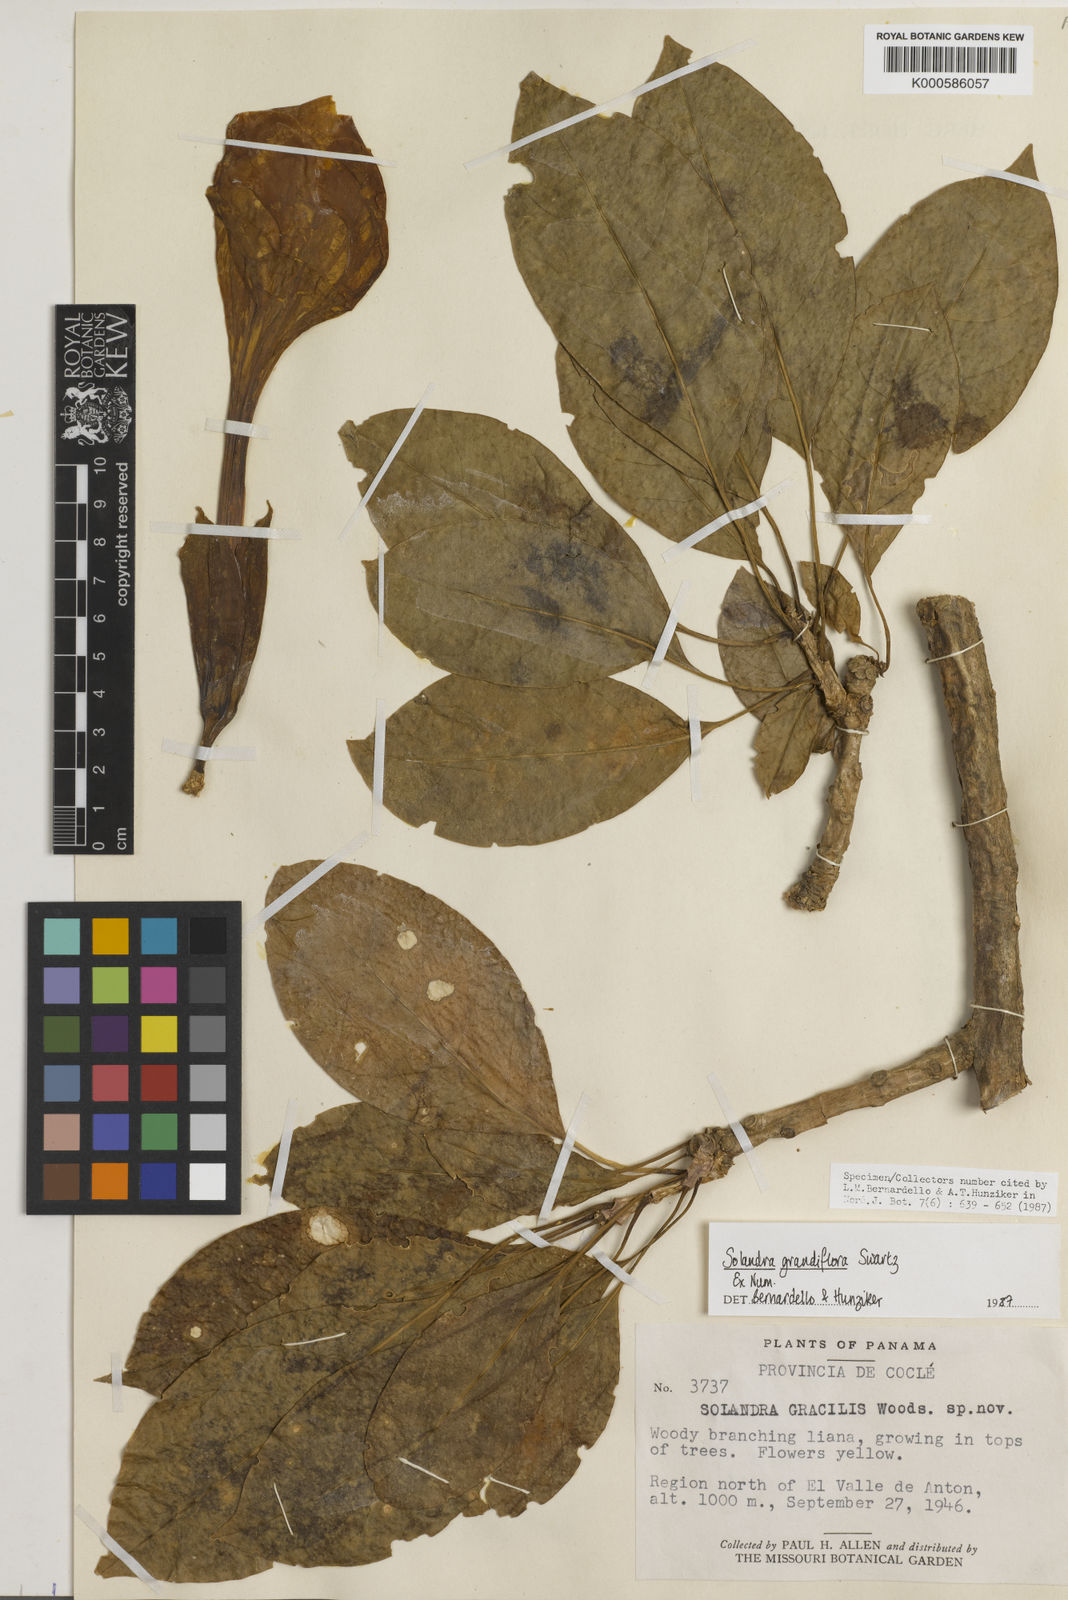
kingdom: Plantae
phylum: Tracheophyta
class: Magnoliopsida
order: Solanales
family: Solanaceae
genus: Solandra
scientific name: Solandra grandiflora
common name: Showy chalicevine
